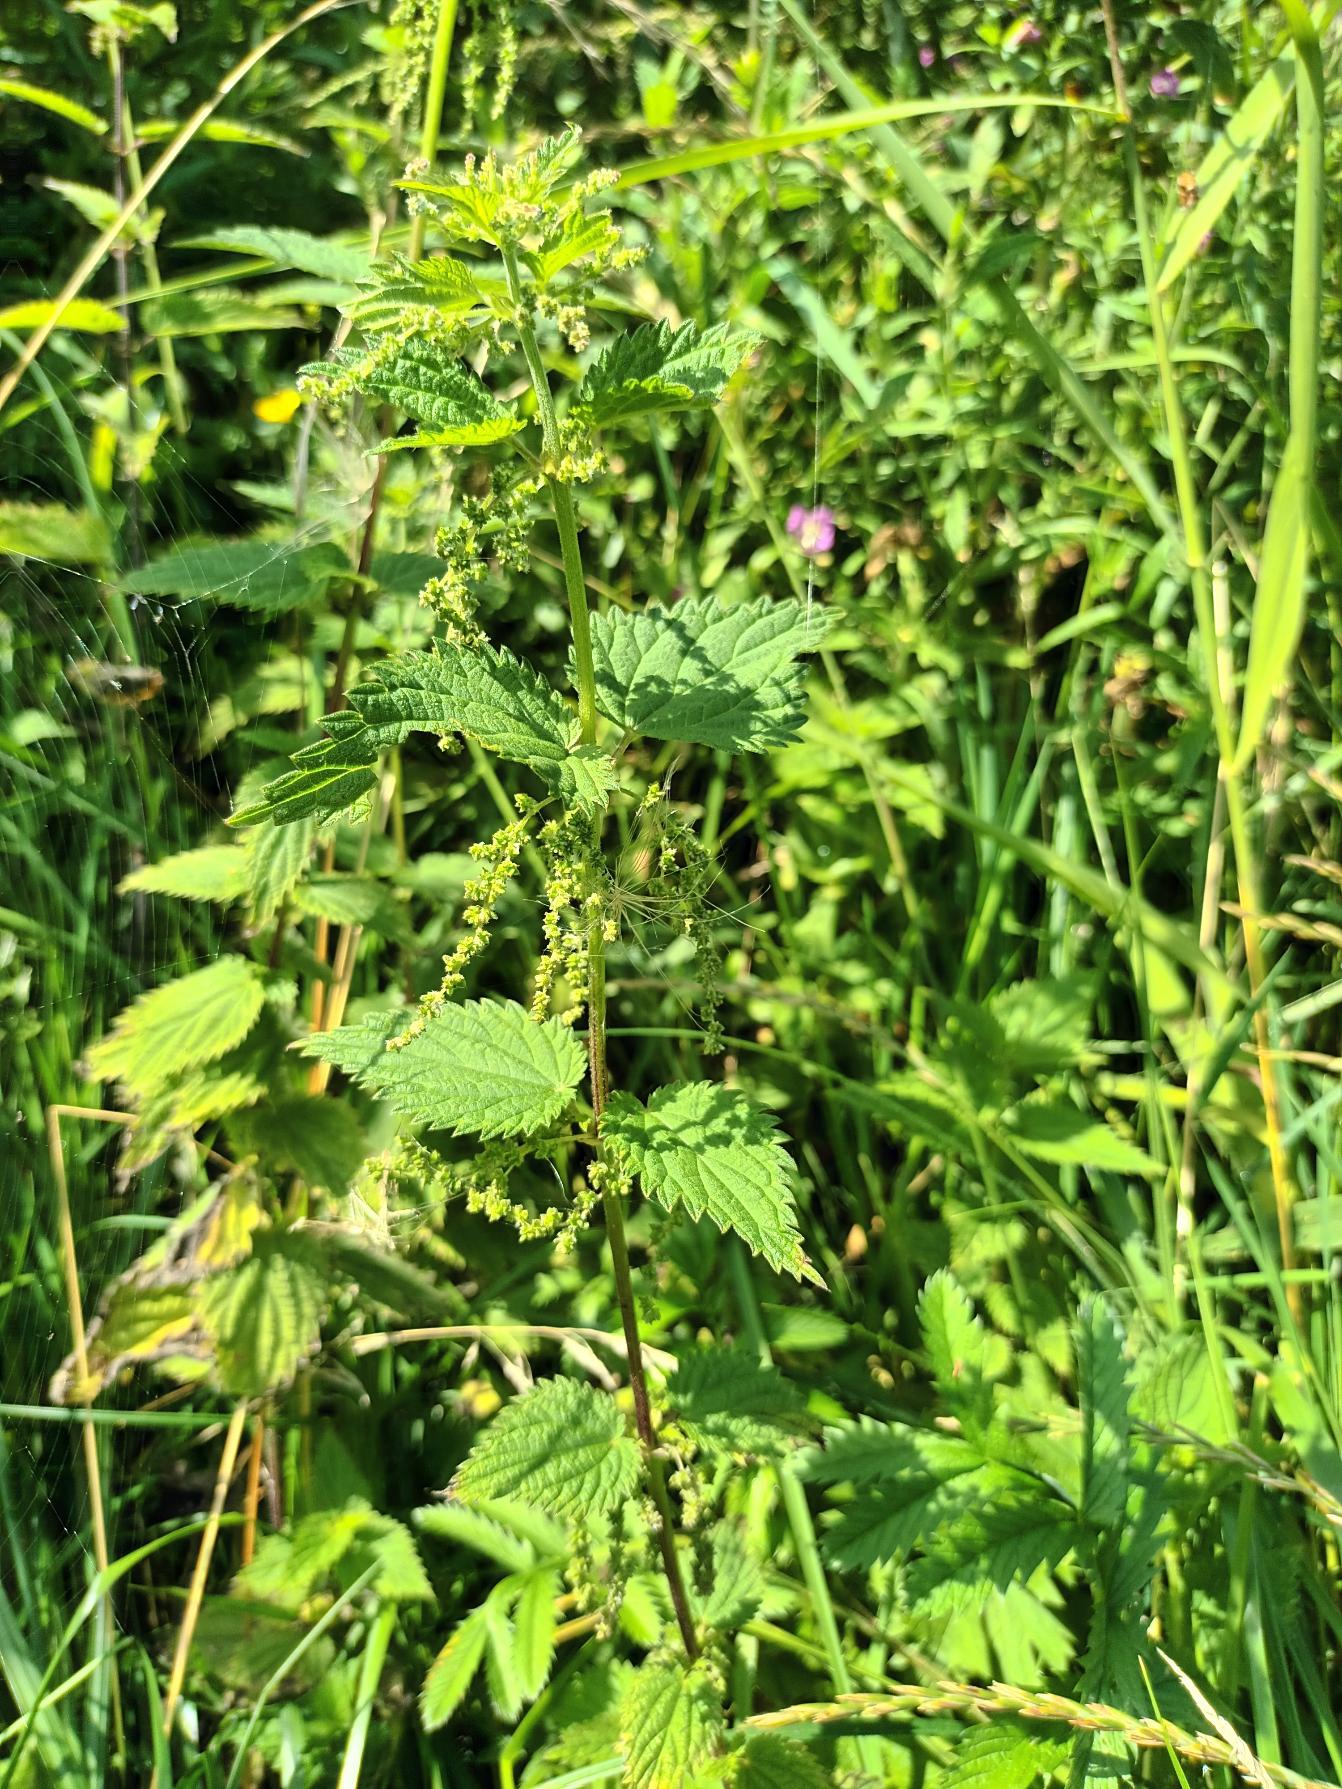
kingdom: Plantae
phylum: Tracheophyta
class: Magnoliopsida
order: Rosales
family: Urticaceae
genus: Urtica
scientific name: Urtica dioica
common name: Stor nælde
